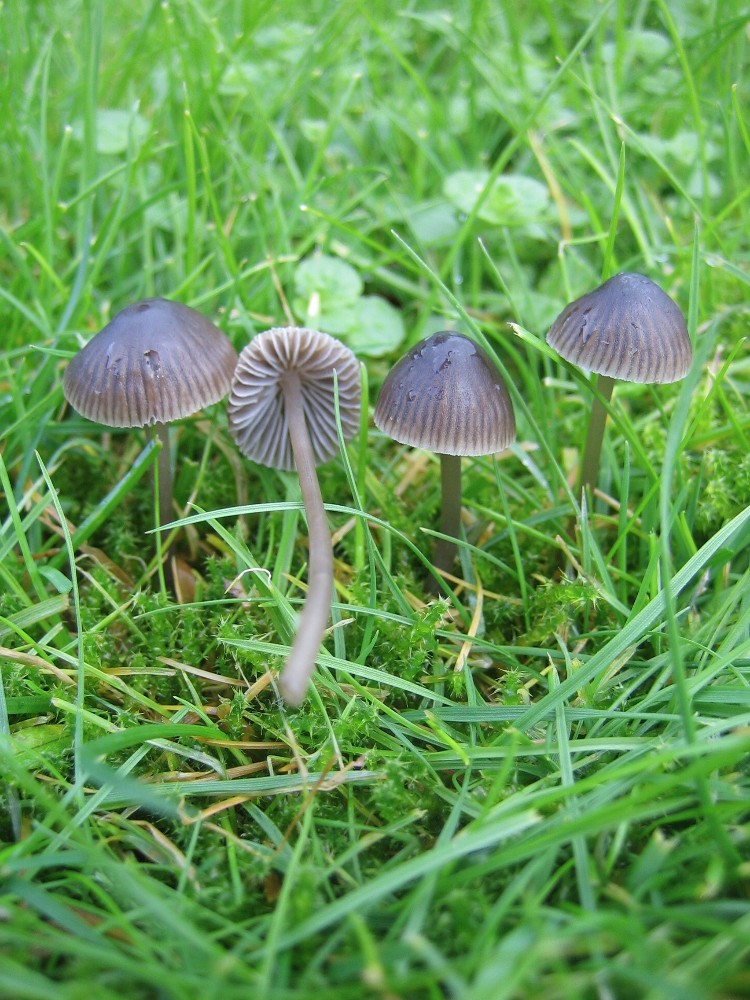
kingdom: Fungi
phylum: Basidiomycota
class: Agaricomycetes
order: Agaricales
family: Mycenaceae
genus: Mycena
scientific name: Mycena leptocephala
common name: klor-huesvamp
